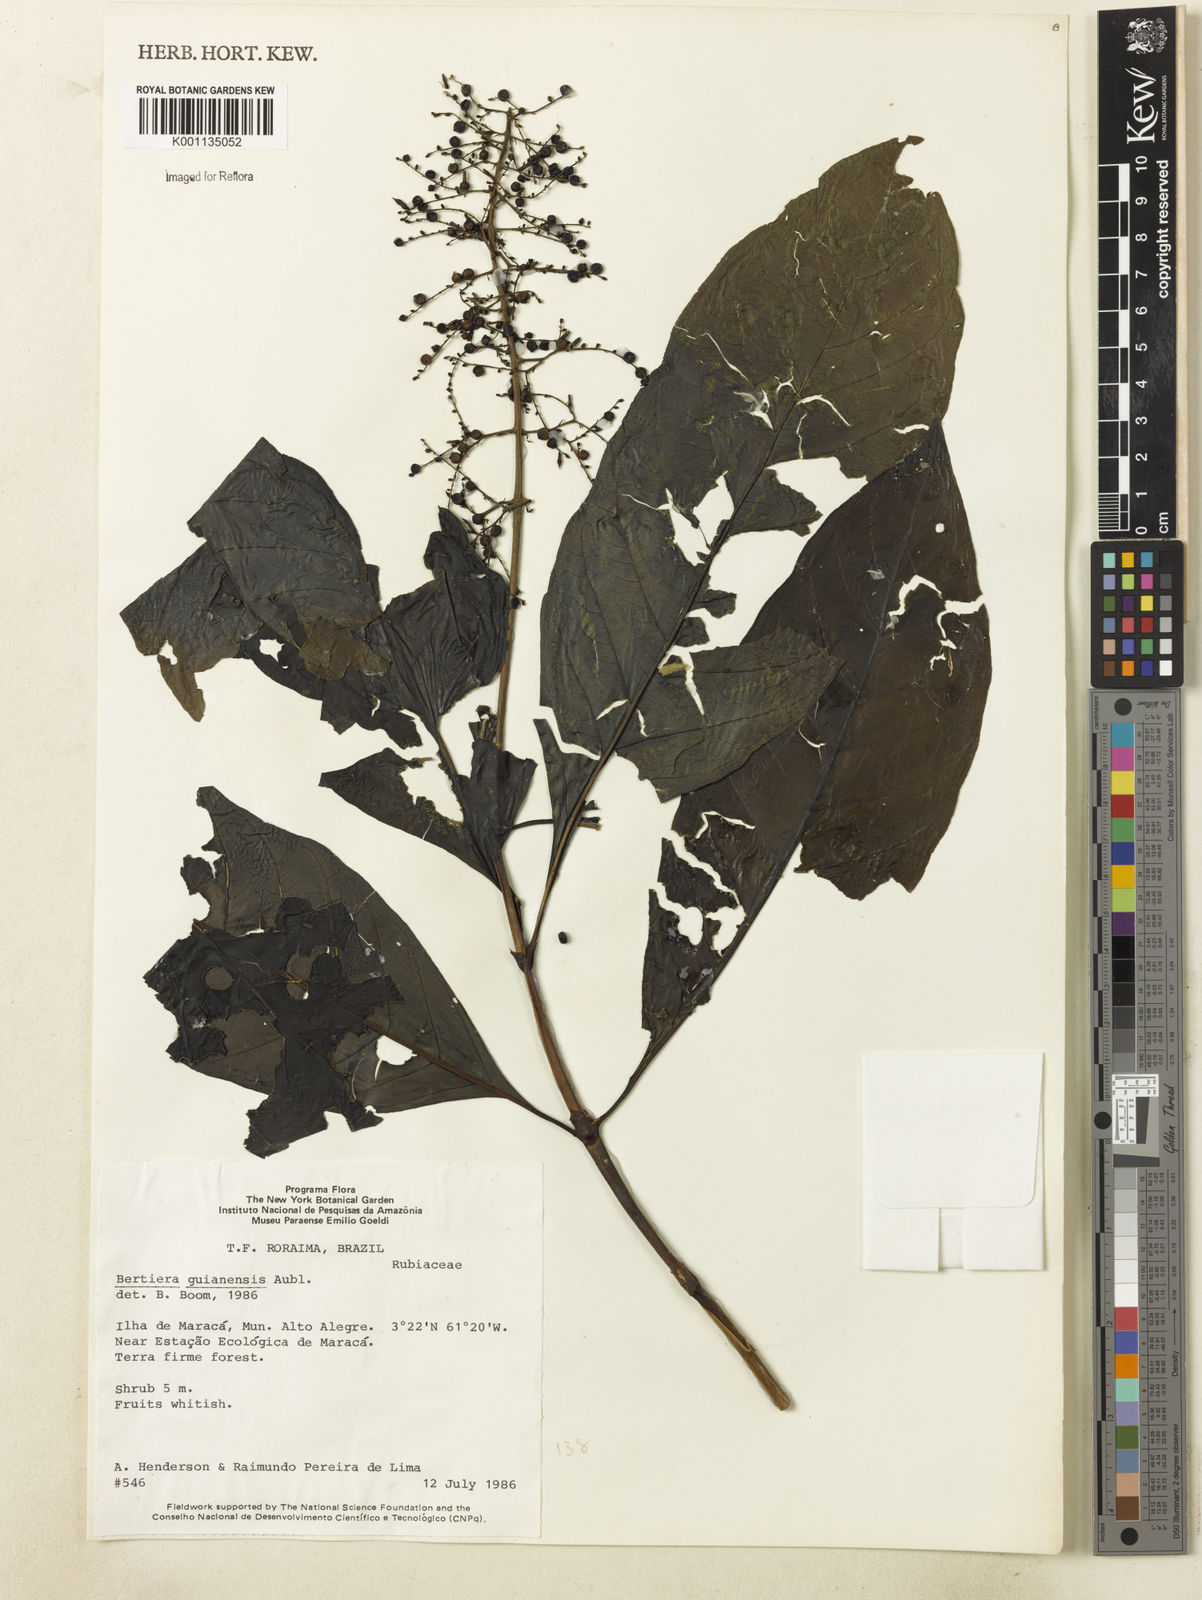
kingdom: Plantae
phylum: Tracheophyta
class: Magnoliopsida
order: Gentianales
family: Rubiaceae
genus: Bertiera
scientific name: Bertiera guianensis
